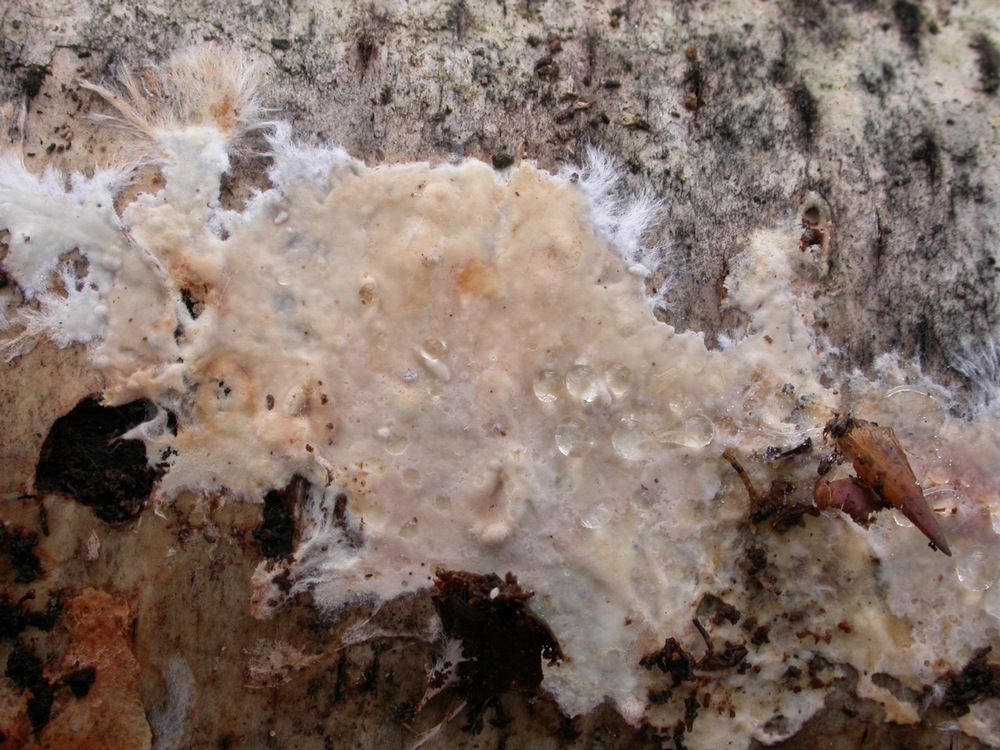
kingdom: Fungi
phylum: Basidiomycota
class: Agaricomycetes
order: Polyporales
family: Phanerochaetaceae
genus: Phanerochaete
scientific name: Phanerochaete velutina
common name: dunet randtråd
